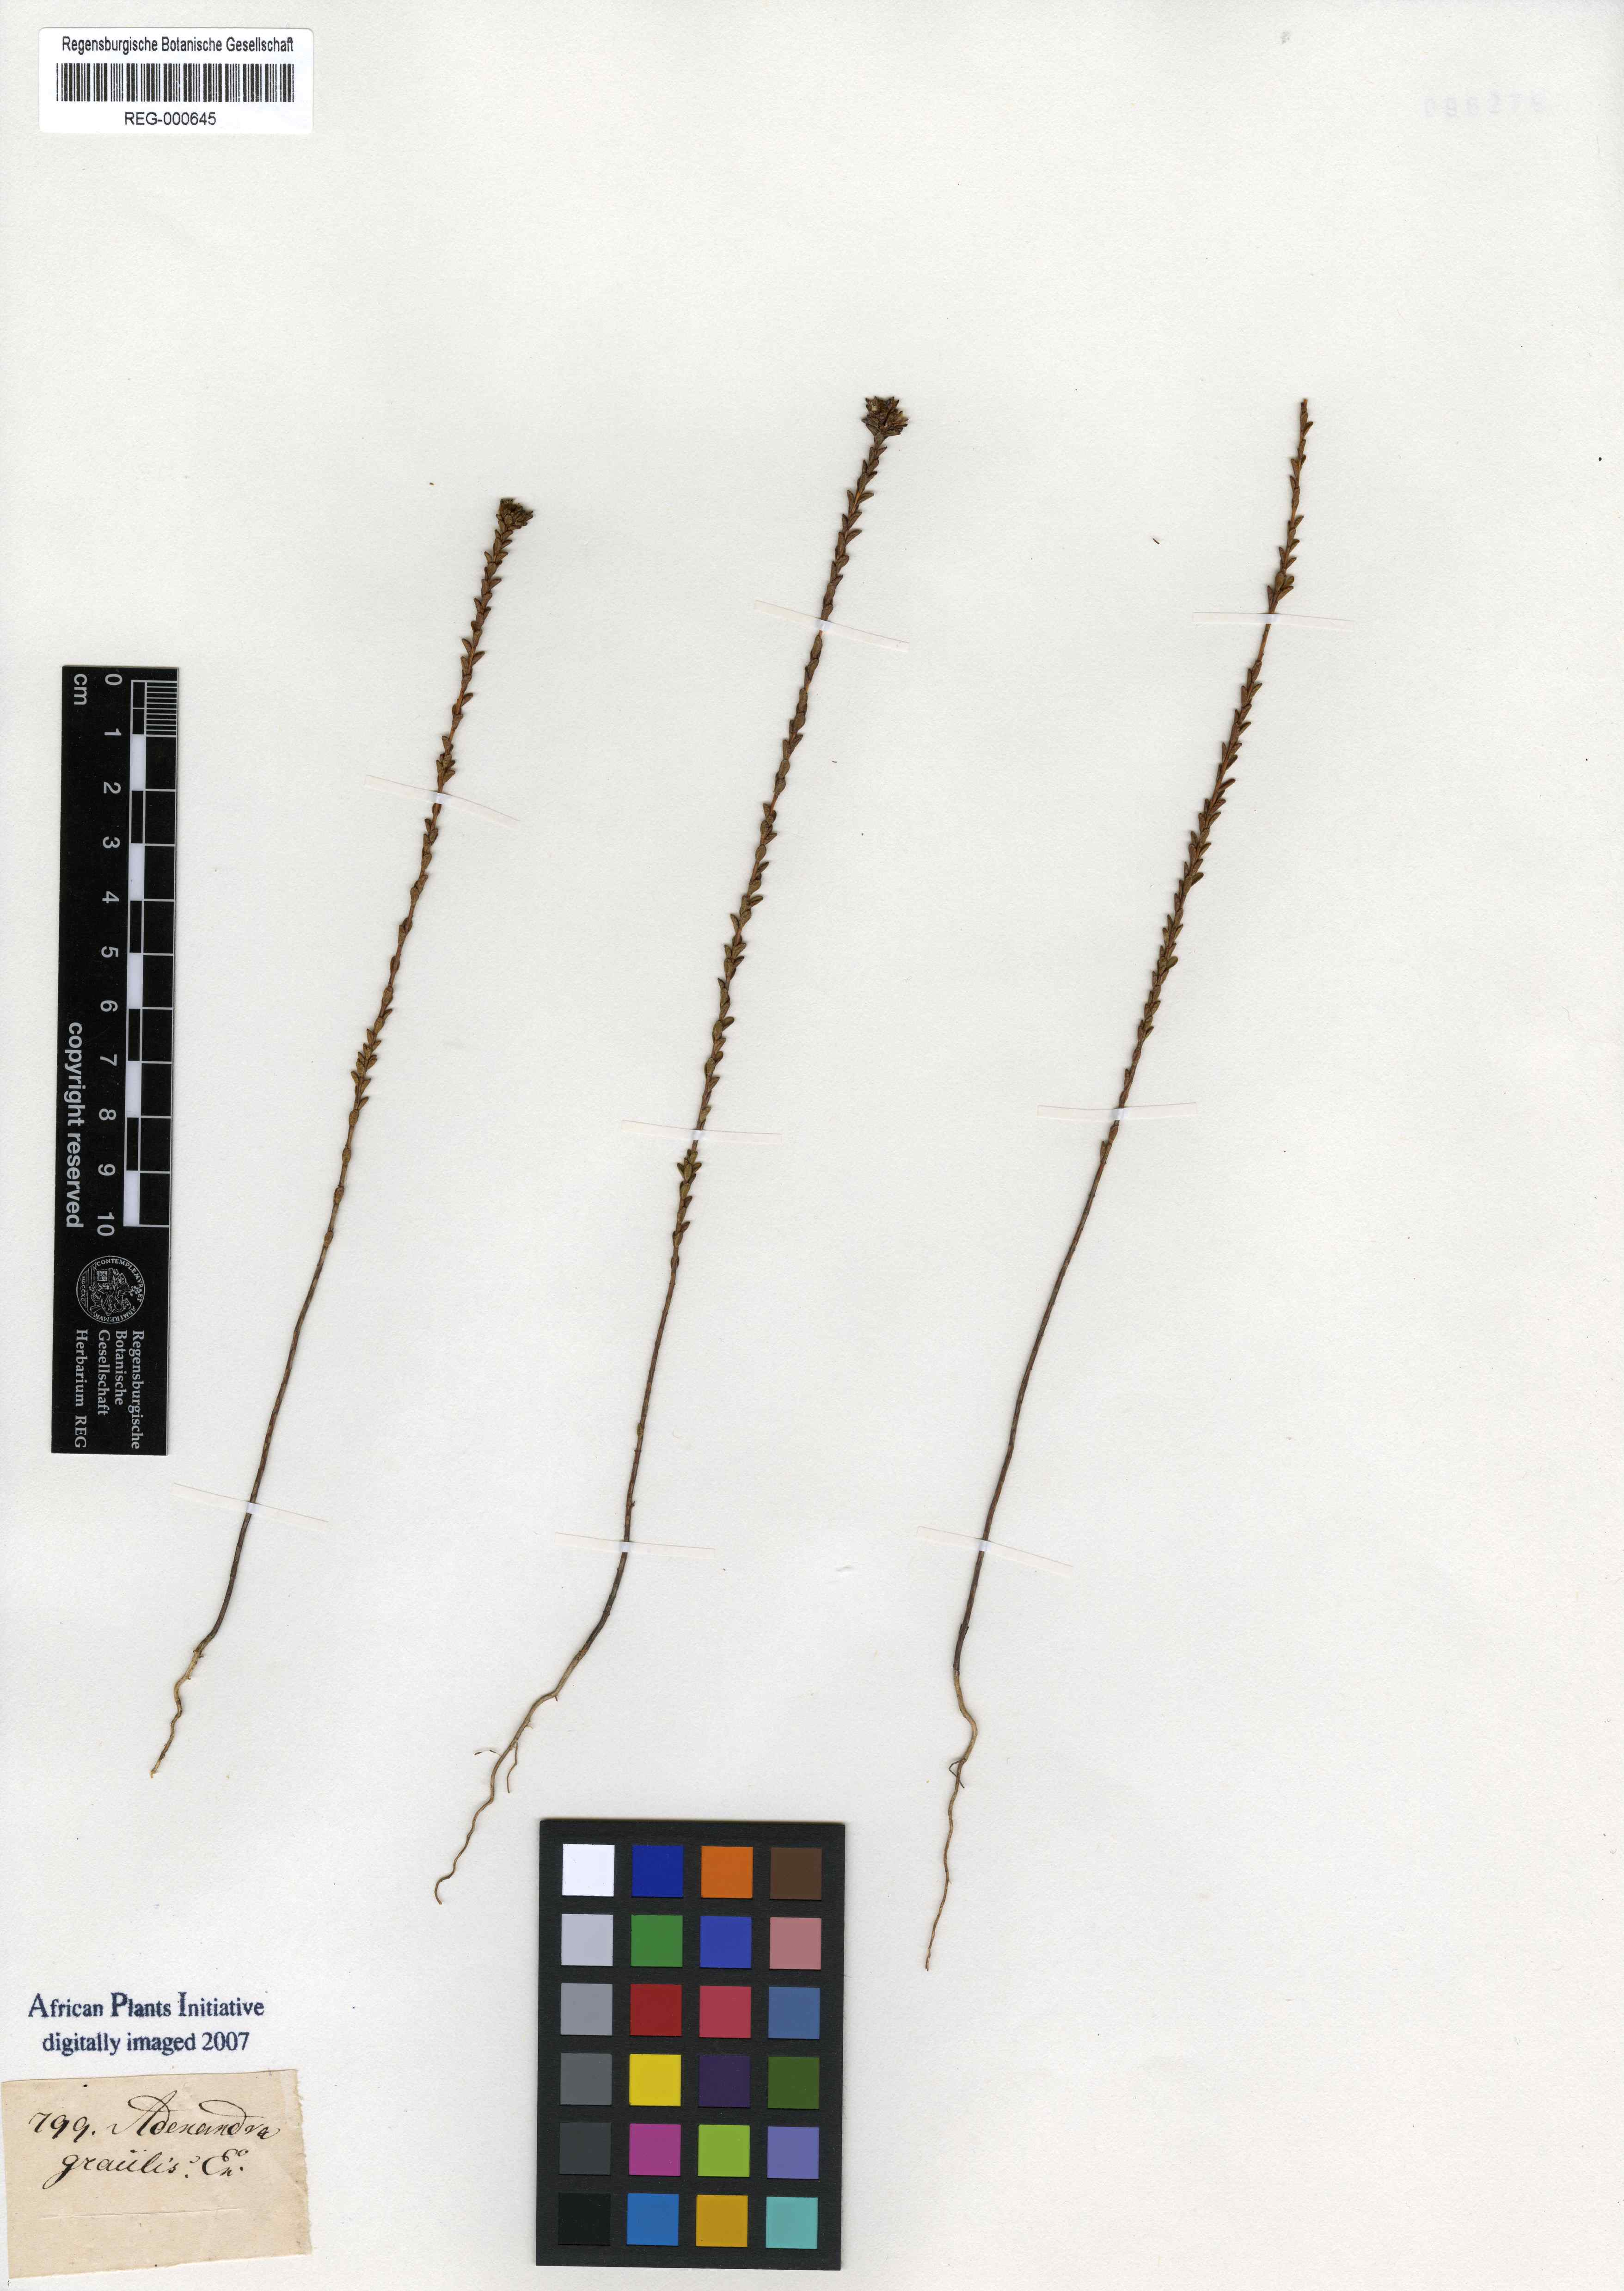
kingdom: Plantae
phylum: Tracheophyta
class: Magnoliopsida
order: Sapindales
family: Rutaceae
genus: Adenandra
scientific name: Adenandra gracilis
